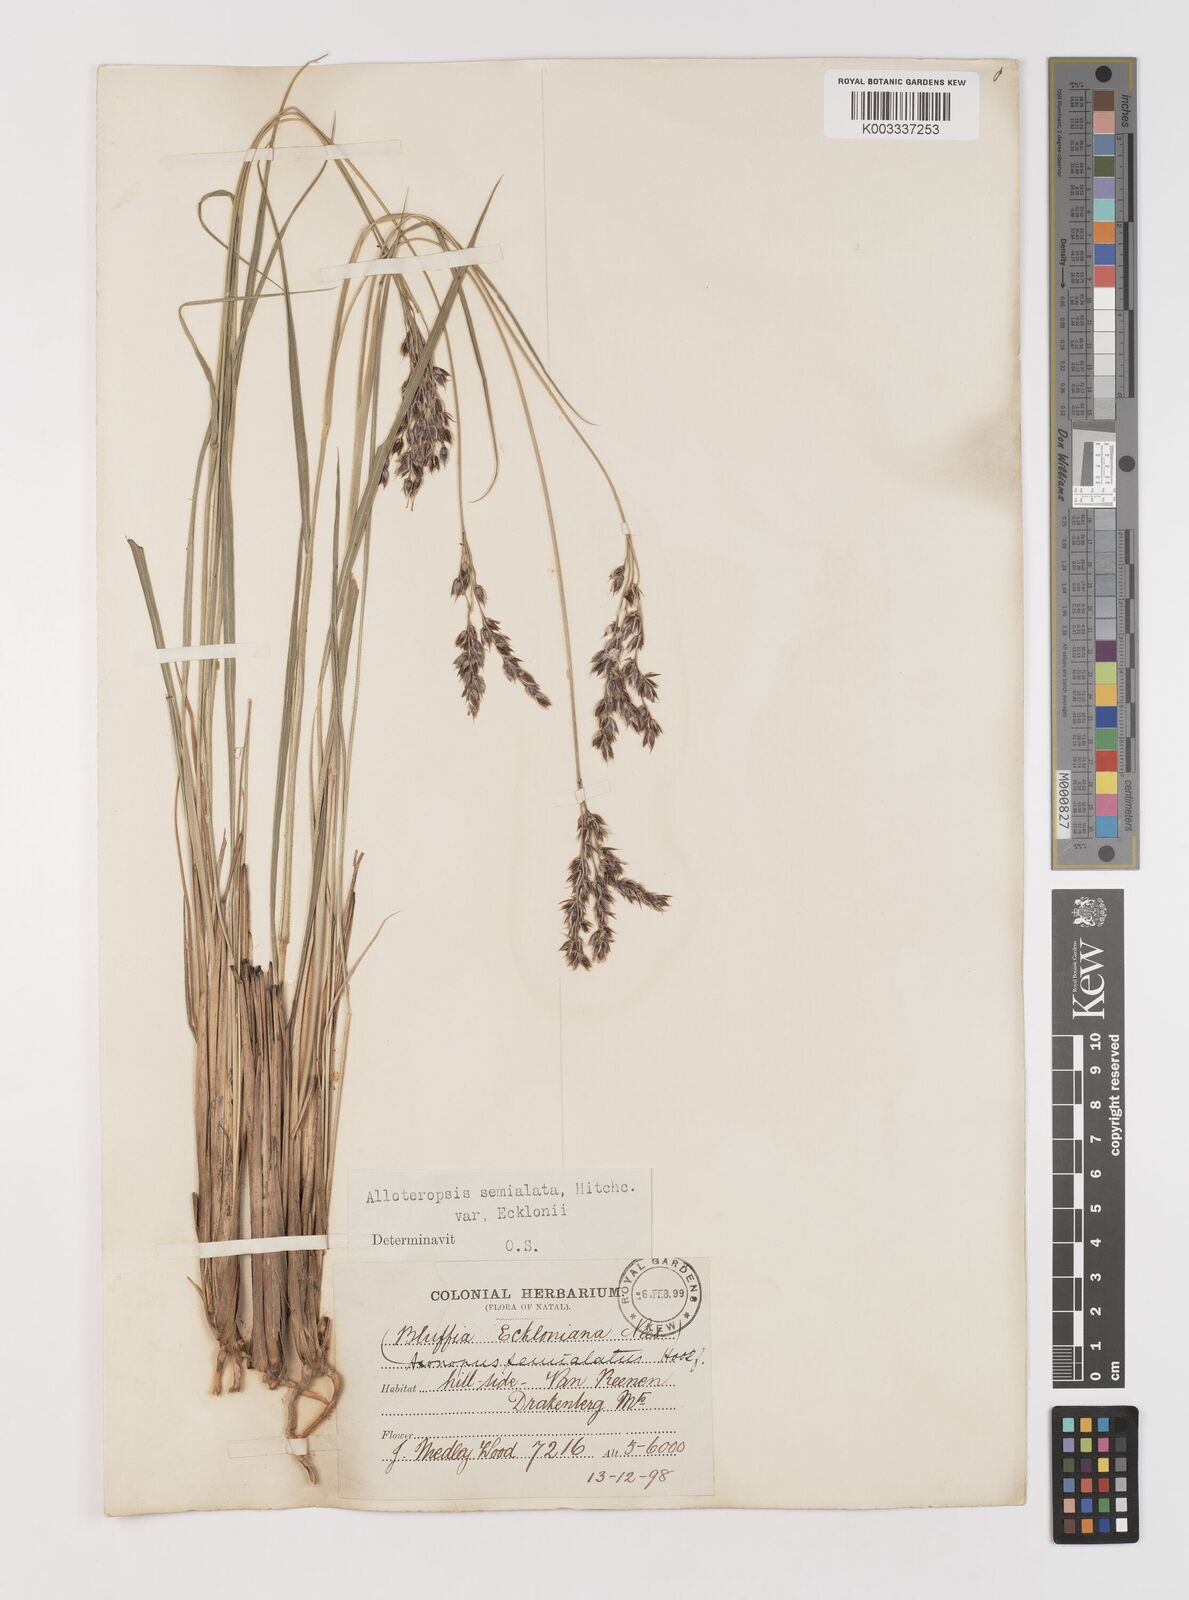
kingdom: Plantae
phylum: Tracheophyta
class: Liliopsida
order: Poales
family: Poaceae
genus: Alloteropsis
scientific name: Alloteropsis semialata
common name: Cockatoo grass
